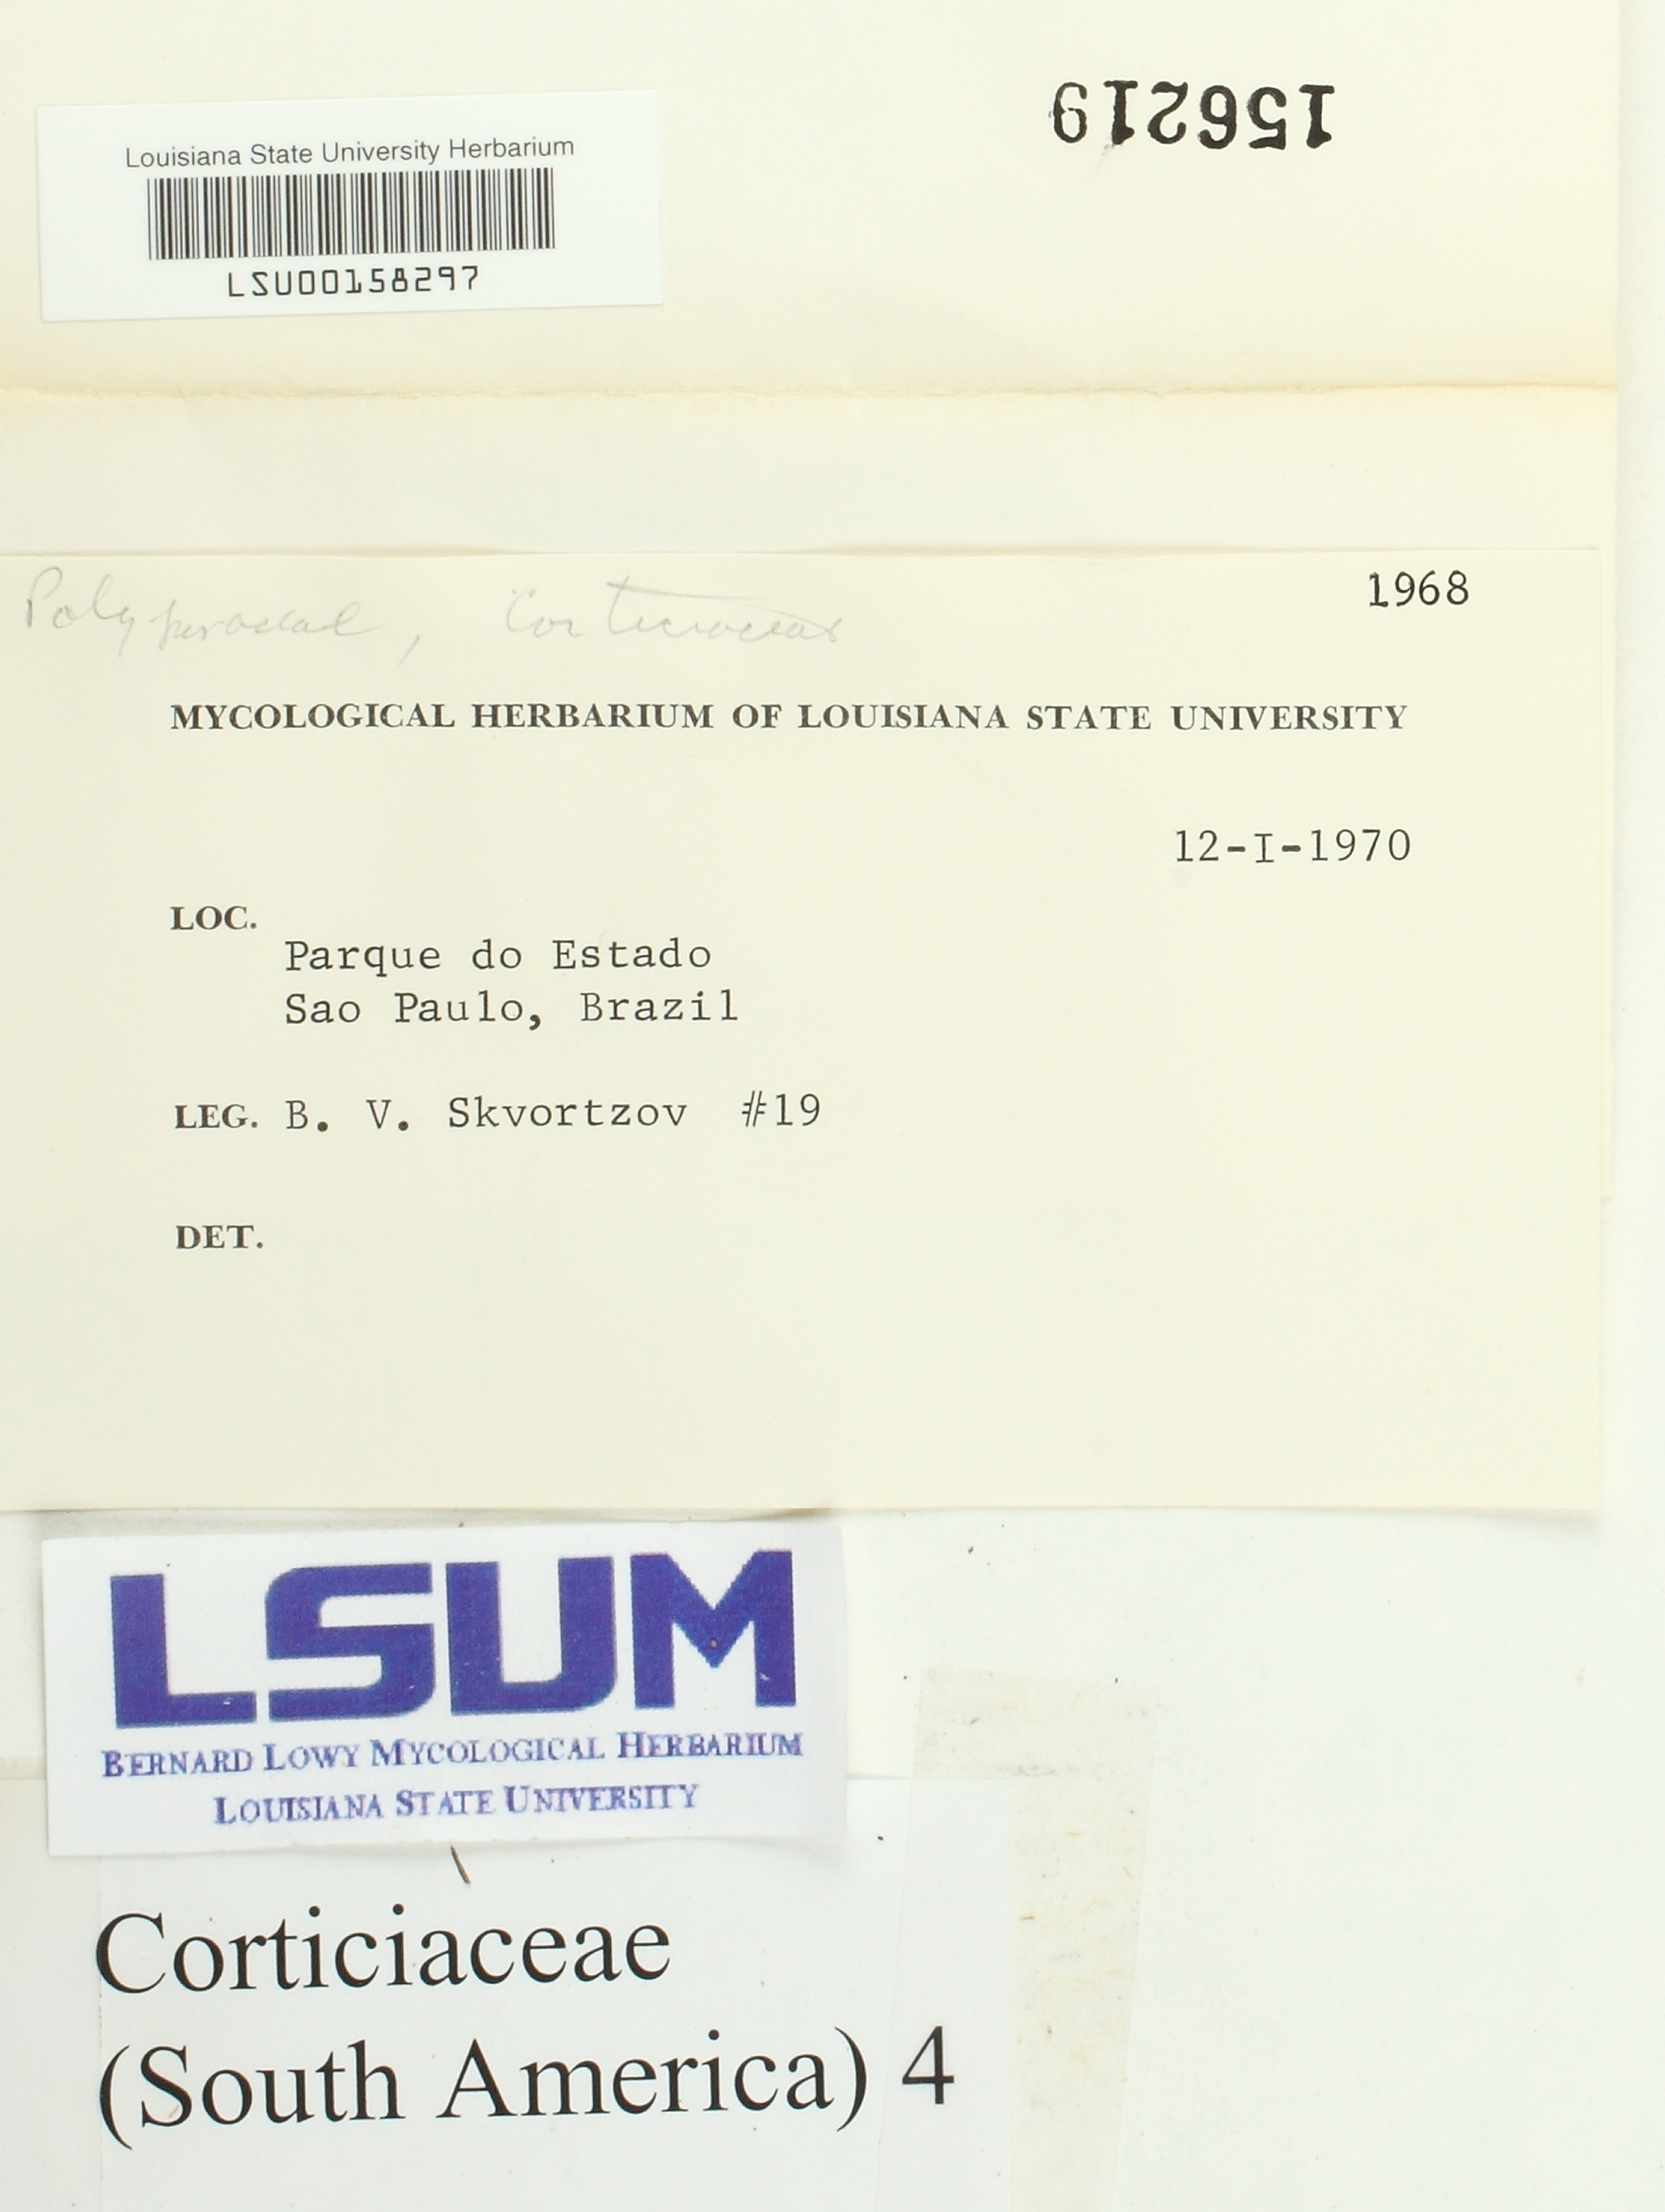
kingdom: Fungi
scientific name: Fungi
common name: Fungi
